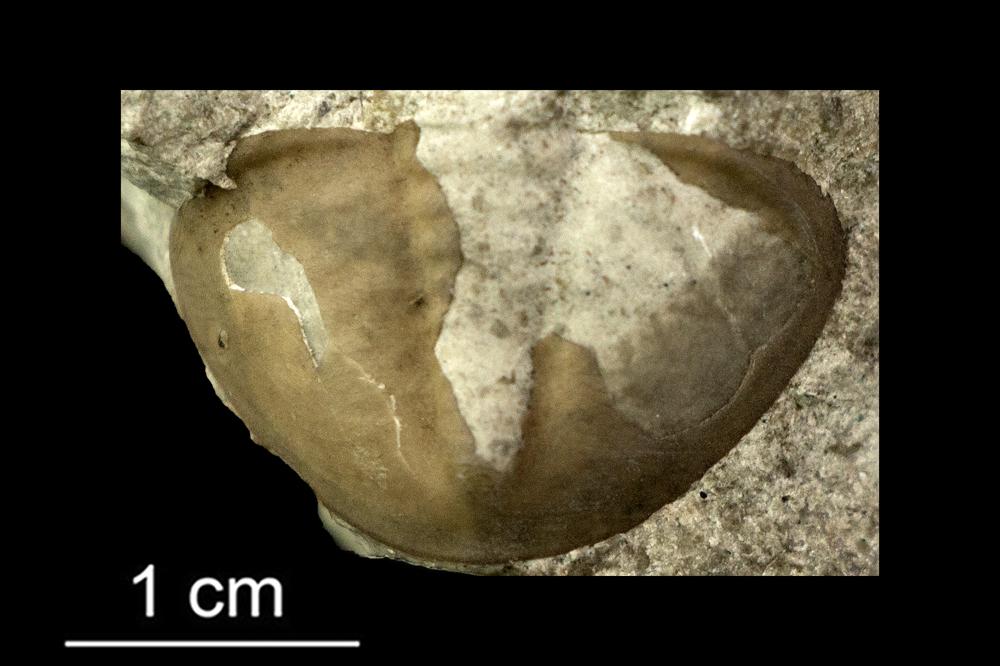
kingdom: Animalia
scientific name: Animalia
